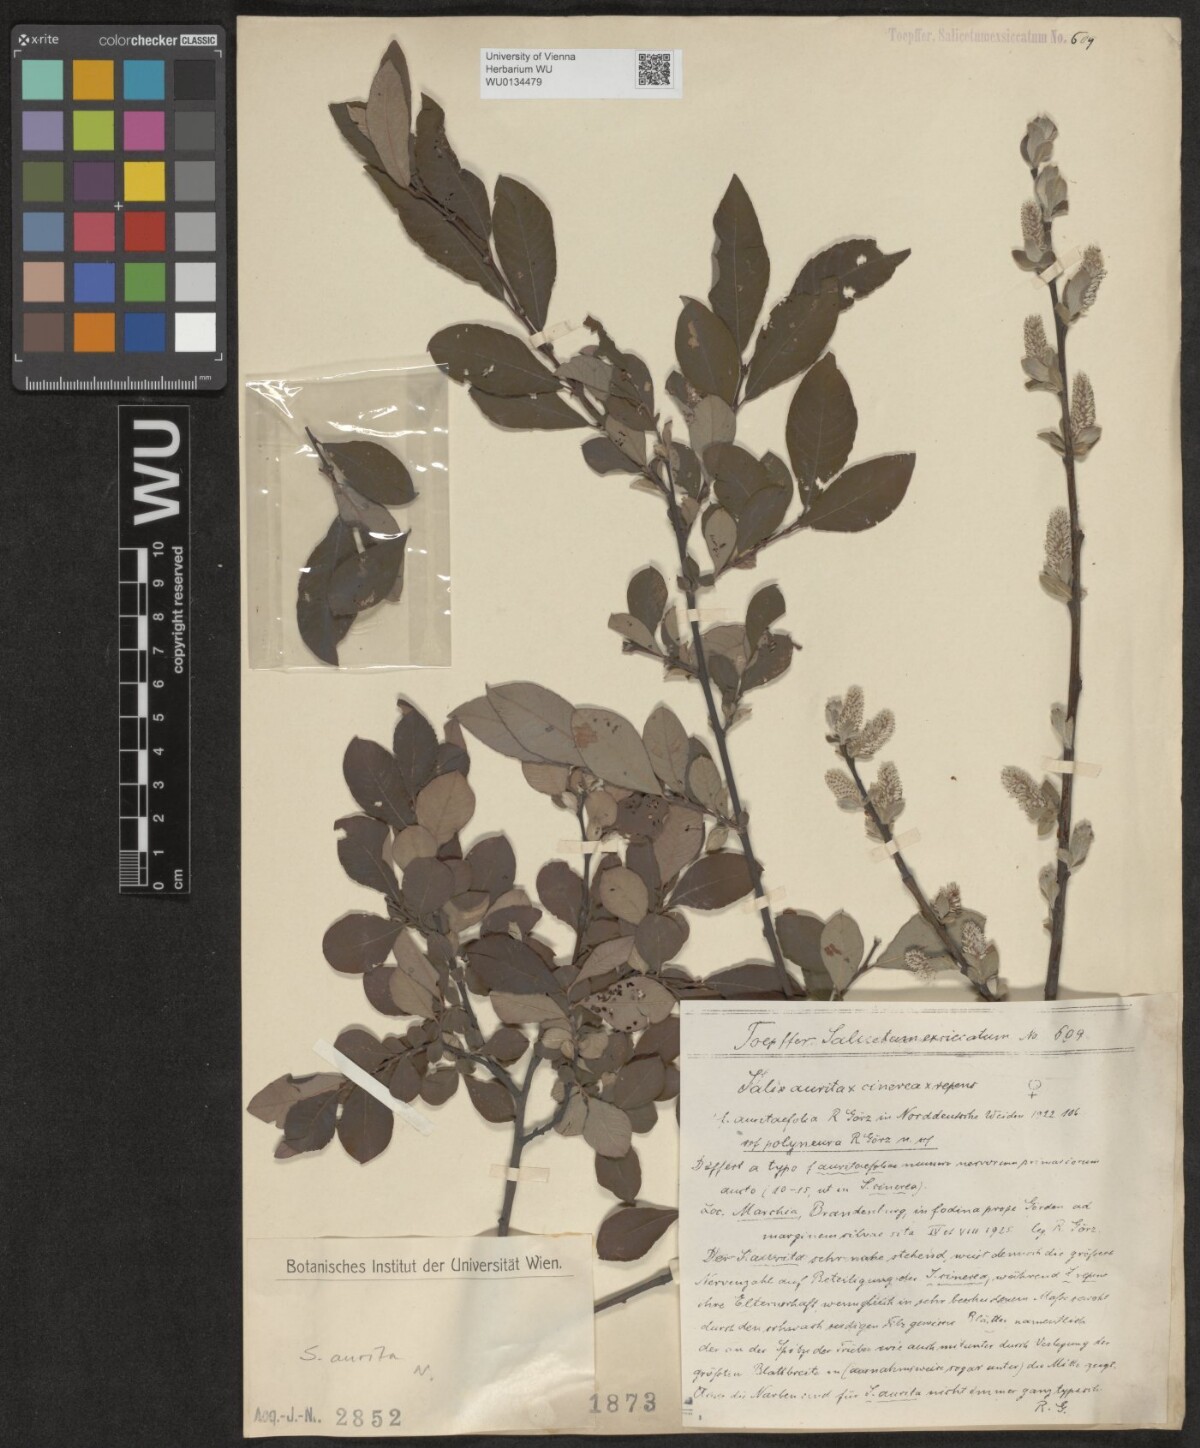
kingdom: Plantae
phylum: Tracheophyta
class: Magnoliopsida
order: Malpighiales
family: Salicaceae
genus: Salix
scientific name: Salix aurita
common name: Eared willow
